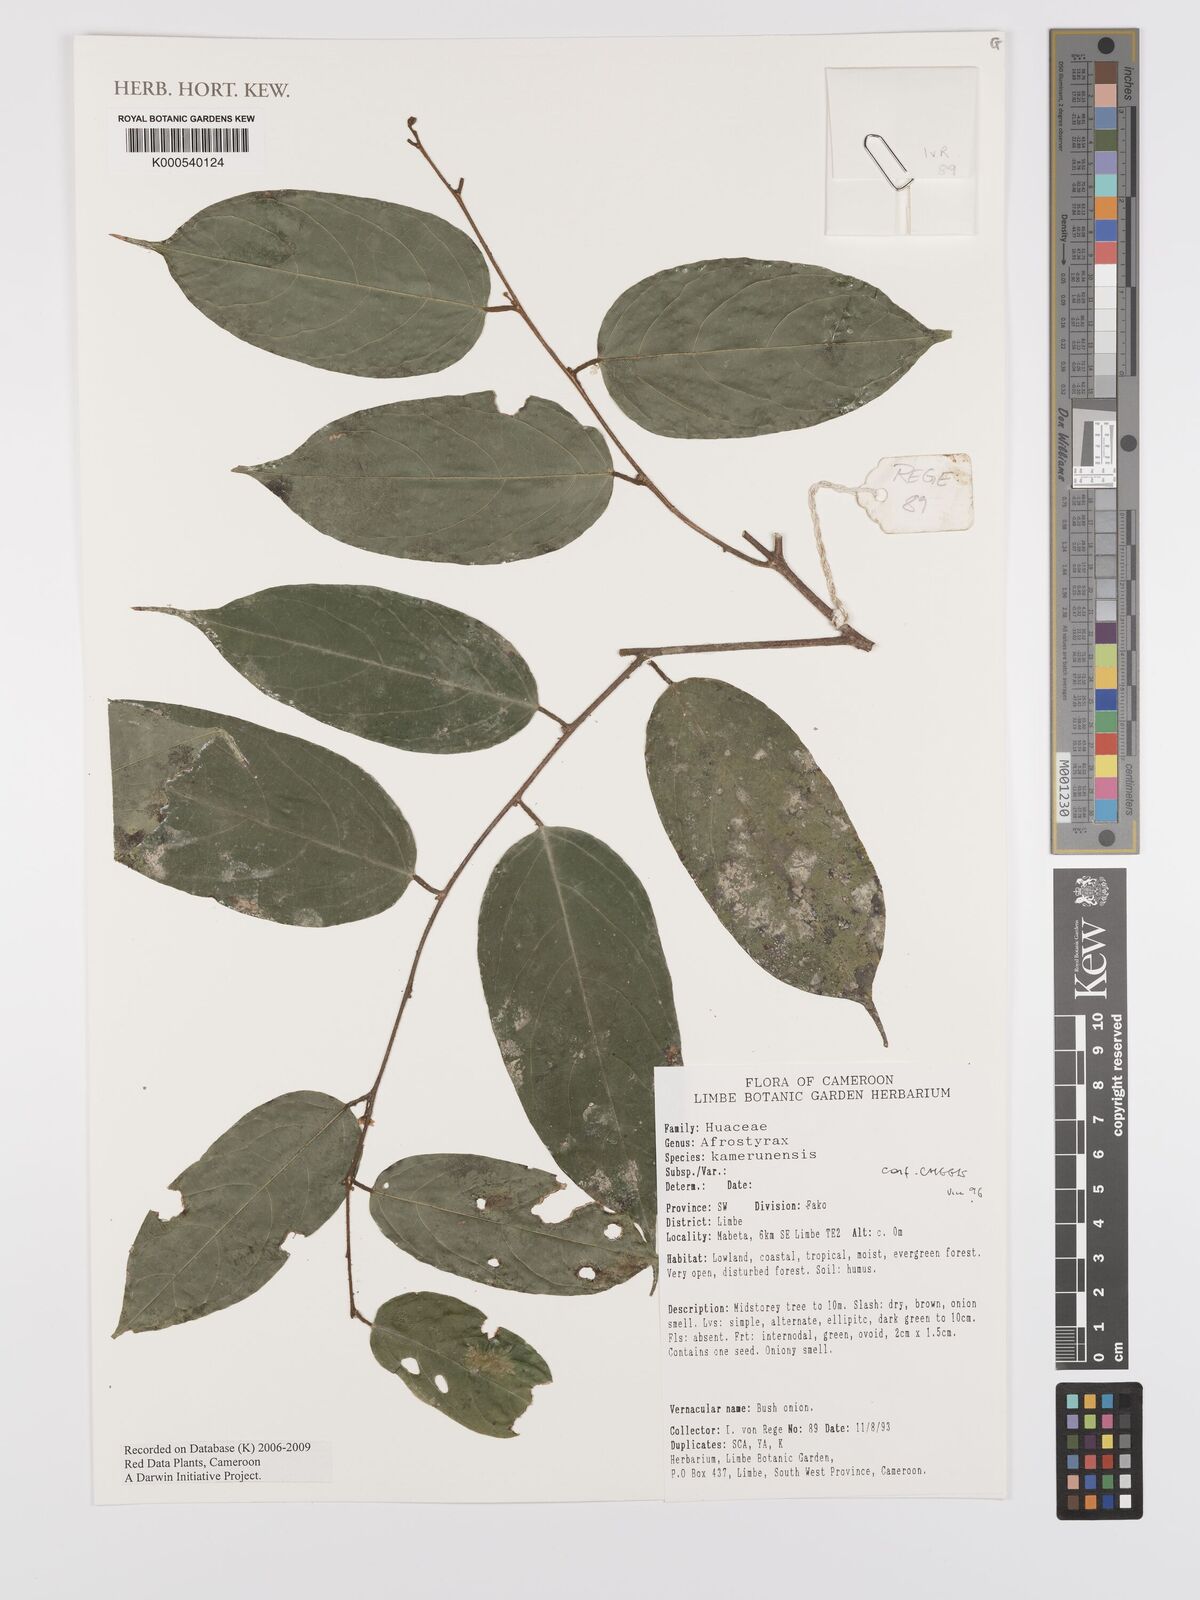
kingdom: Plantae
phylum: Tracheophyta
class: Magnoliopsida
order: Oxalidales
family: Huaceae
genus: Afrostyrax
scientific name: Afrostyrax kamerunensis
